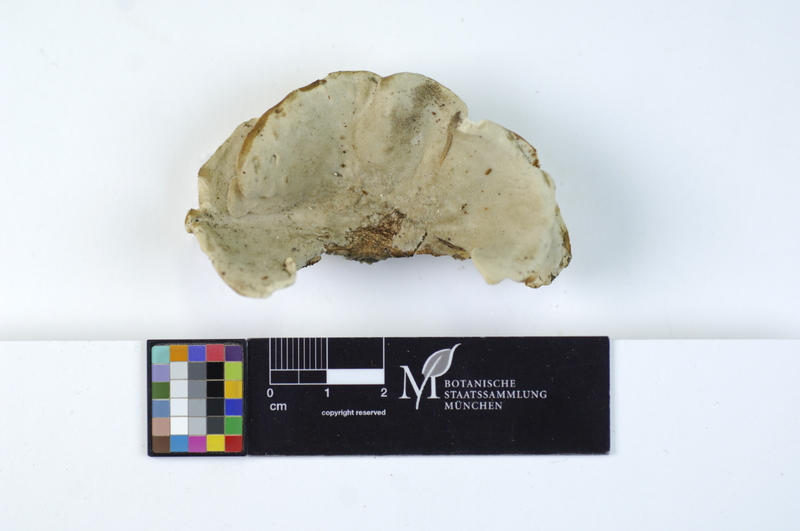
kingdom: Plantae
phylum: Tracheophyta
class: Pinopsida
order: Pinales
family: Pinaceae
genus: Picea
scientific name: Picea
